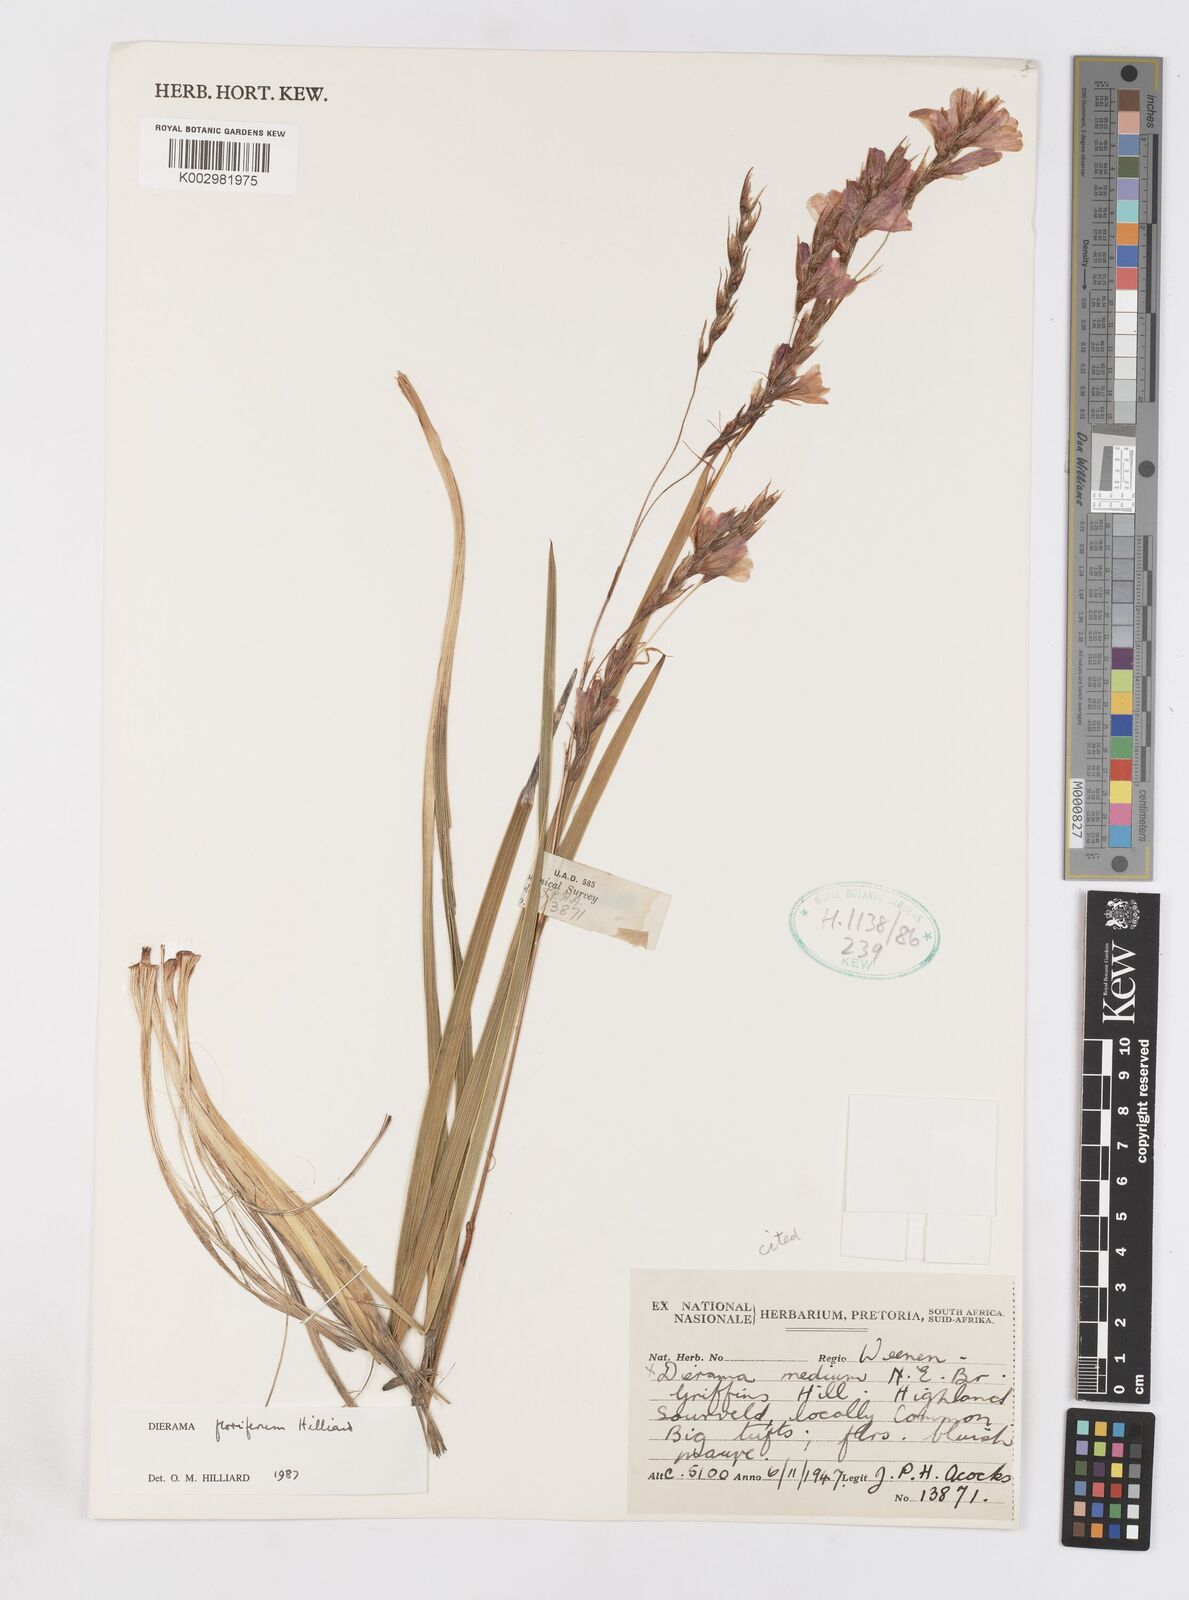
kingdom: Plantae
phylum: Tracheophyta
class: Liliopsida
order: Asparagales
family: Iridaceae
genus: Dierama
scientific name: Dierama floriferum
